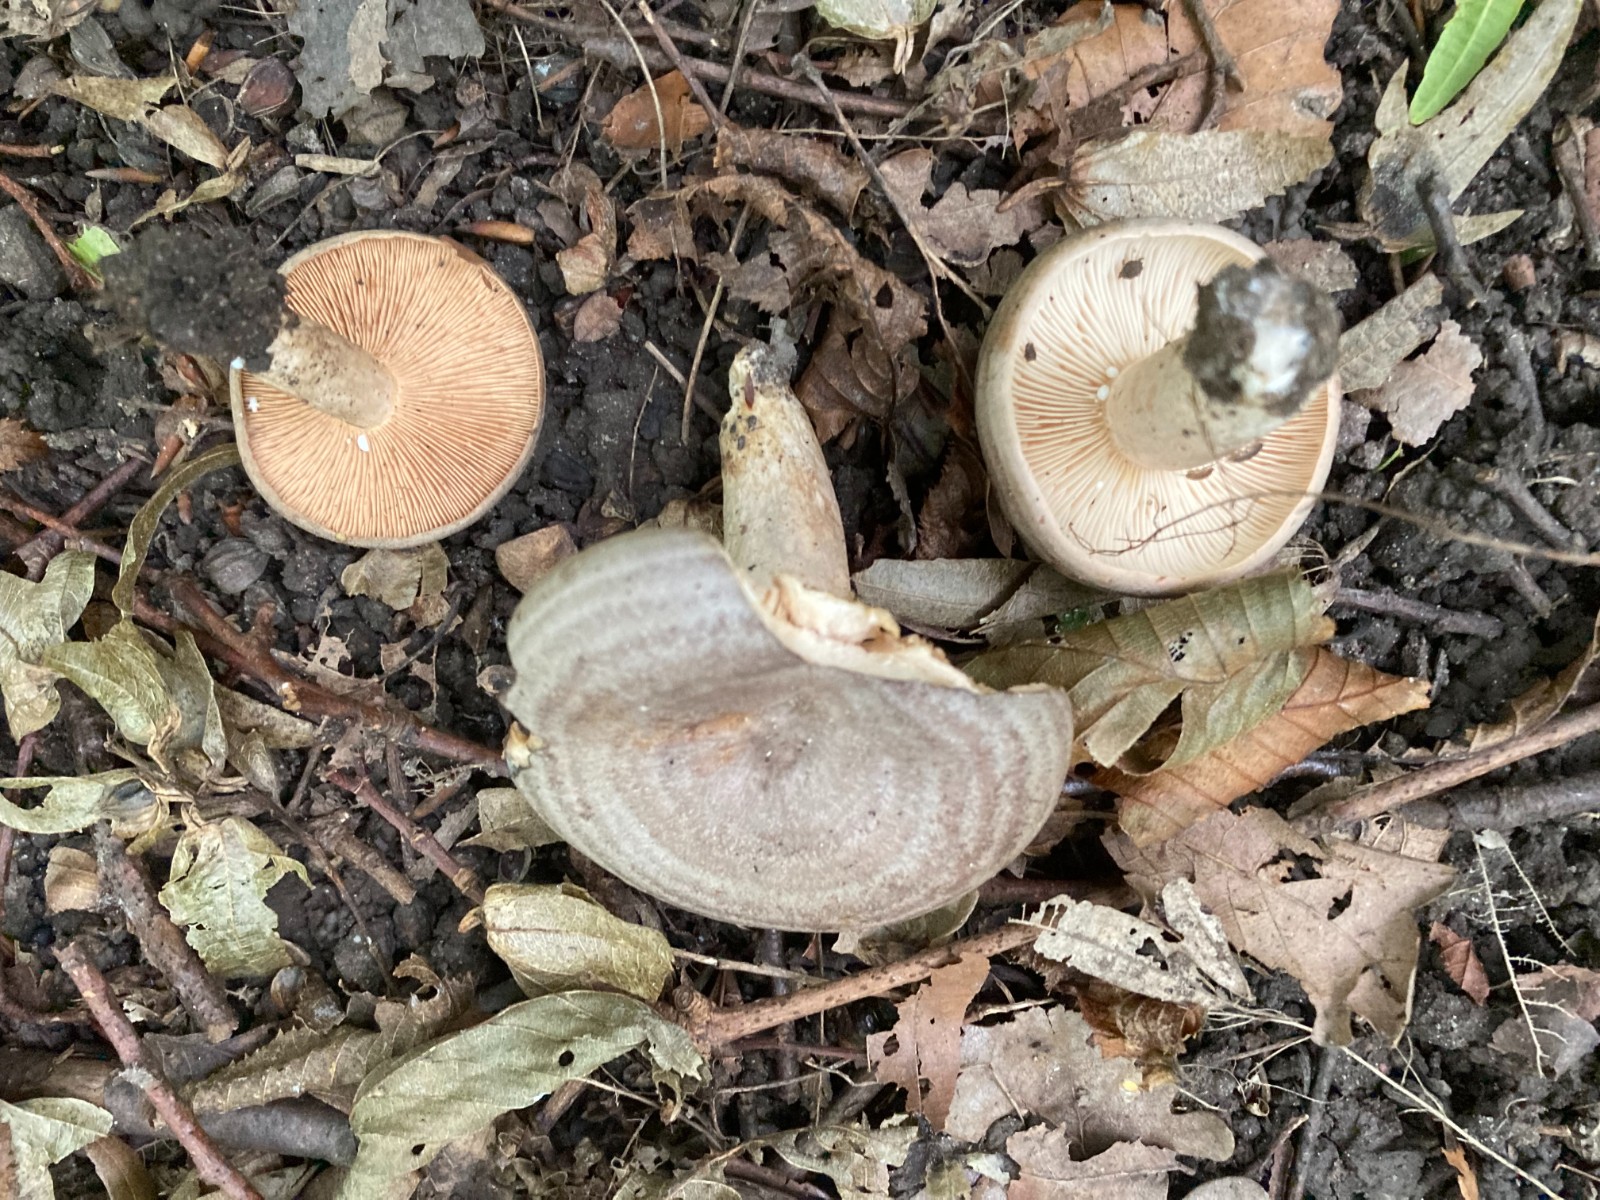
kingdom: Fungi
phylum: Basidiomycota
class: Agaricomycetes
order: Russulales
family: Russulaceae
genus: Lactarius
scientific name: Lactarius circellatus
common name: avnbøg-mælkehat
